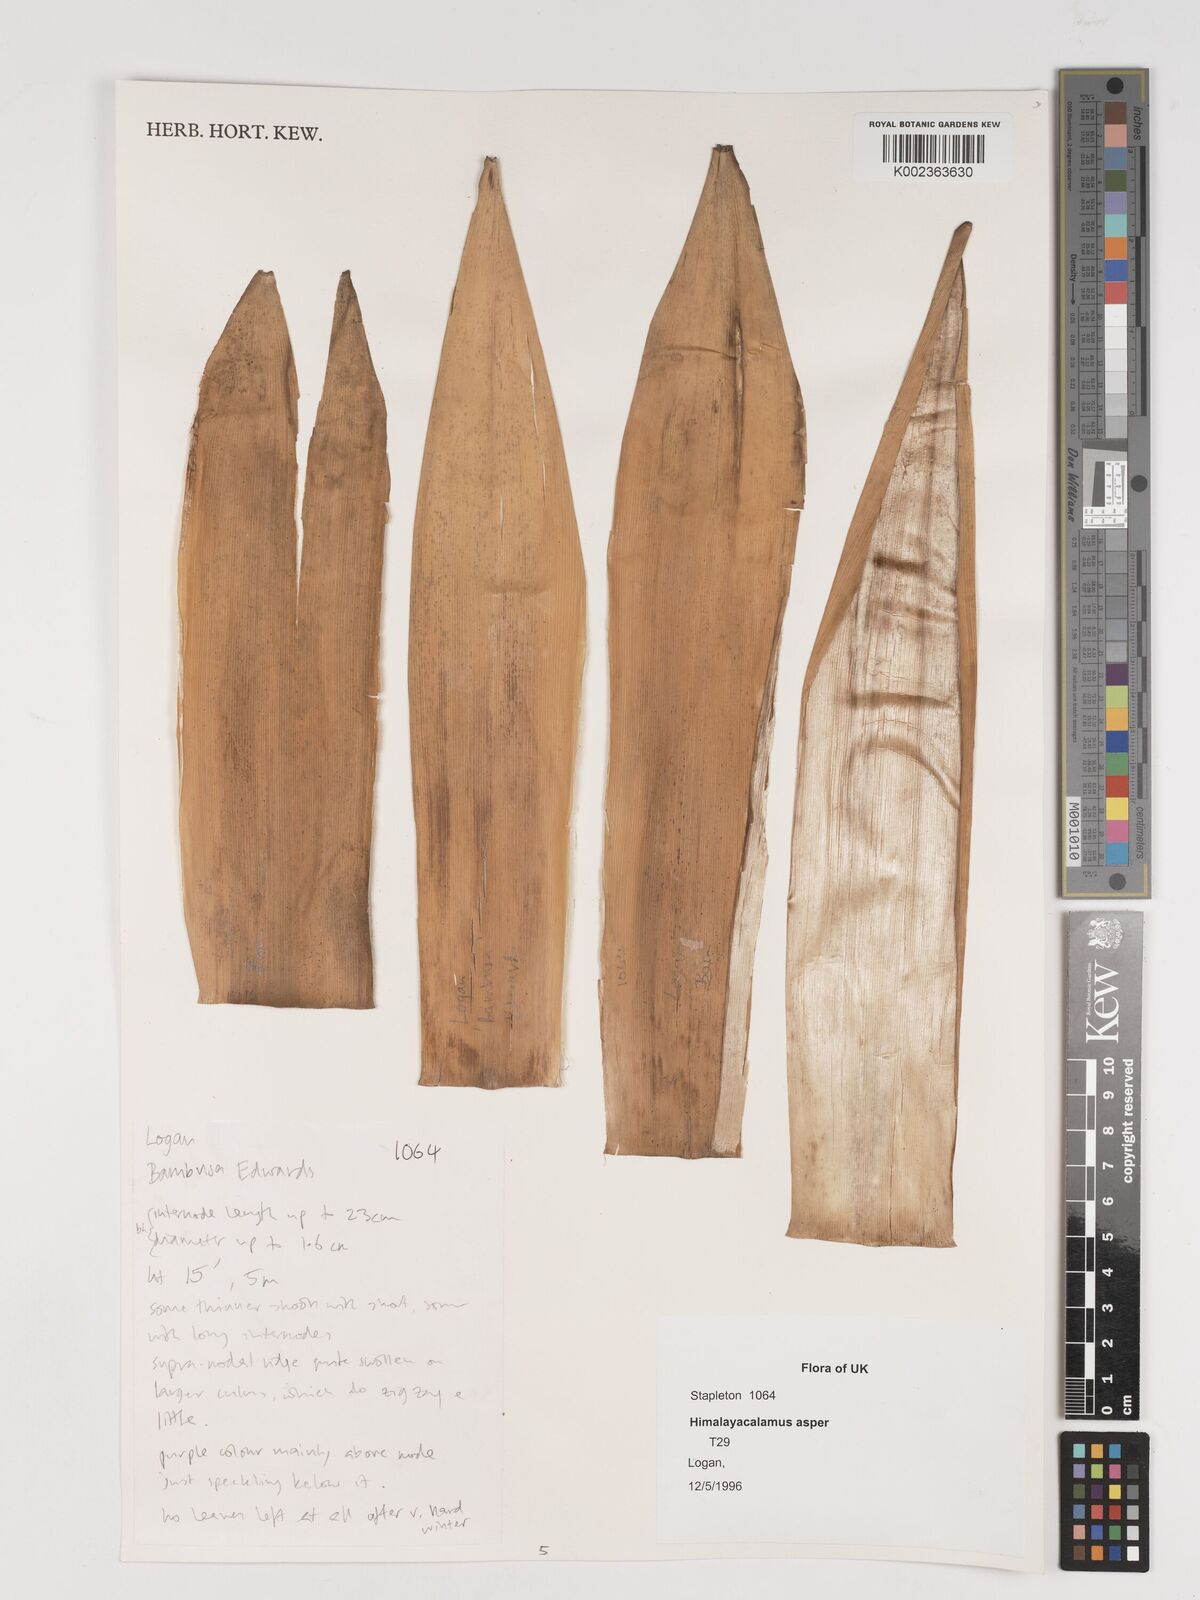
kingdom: Plantae
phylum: Tracheophyta
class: Liliopsida
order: Poales
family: Poaceae
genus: Himalayacalamus
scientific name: Himalayacalamus asper
